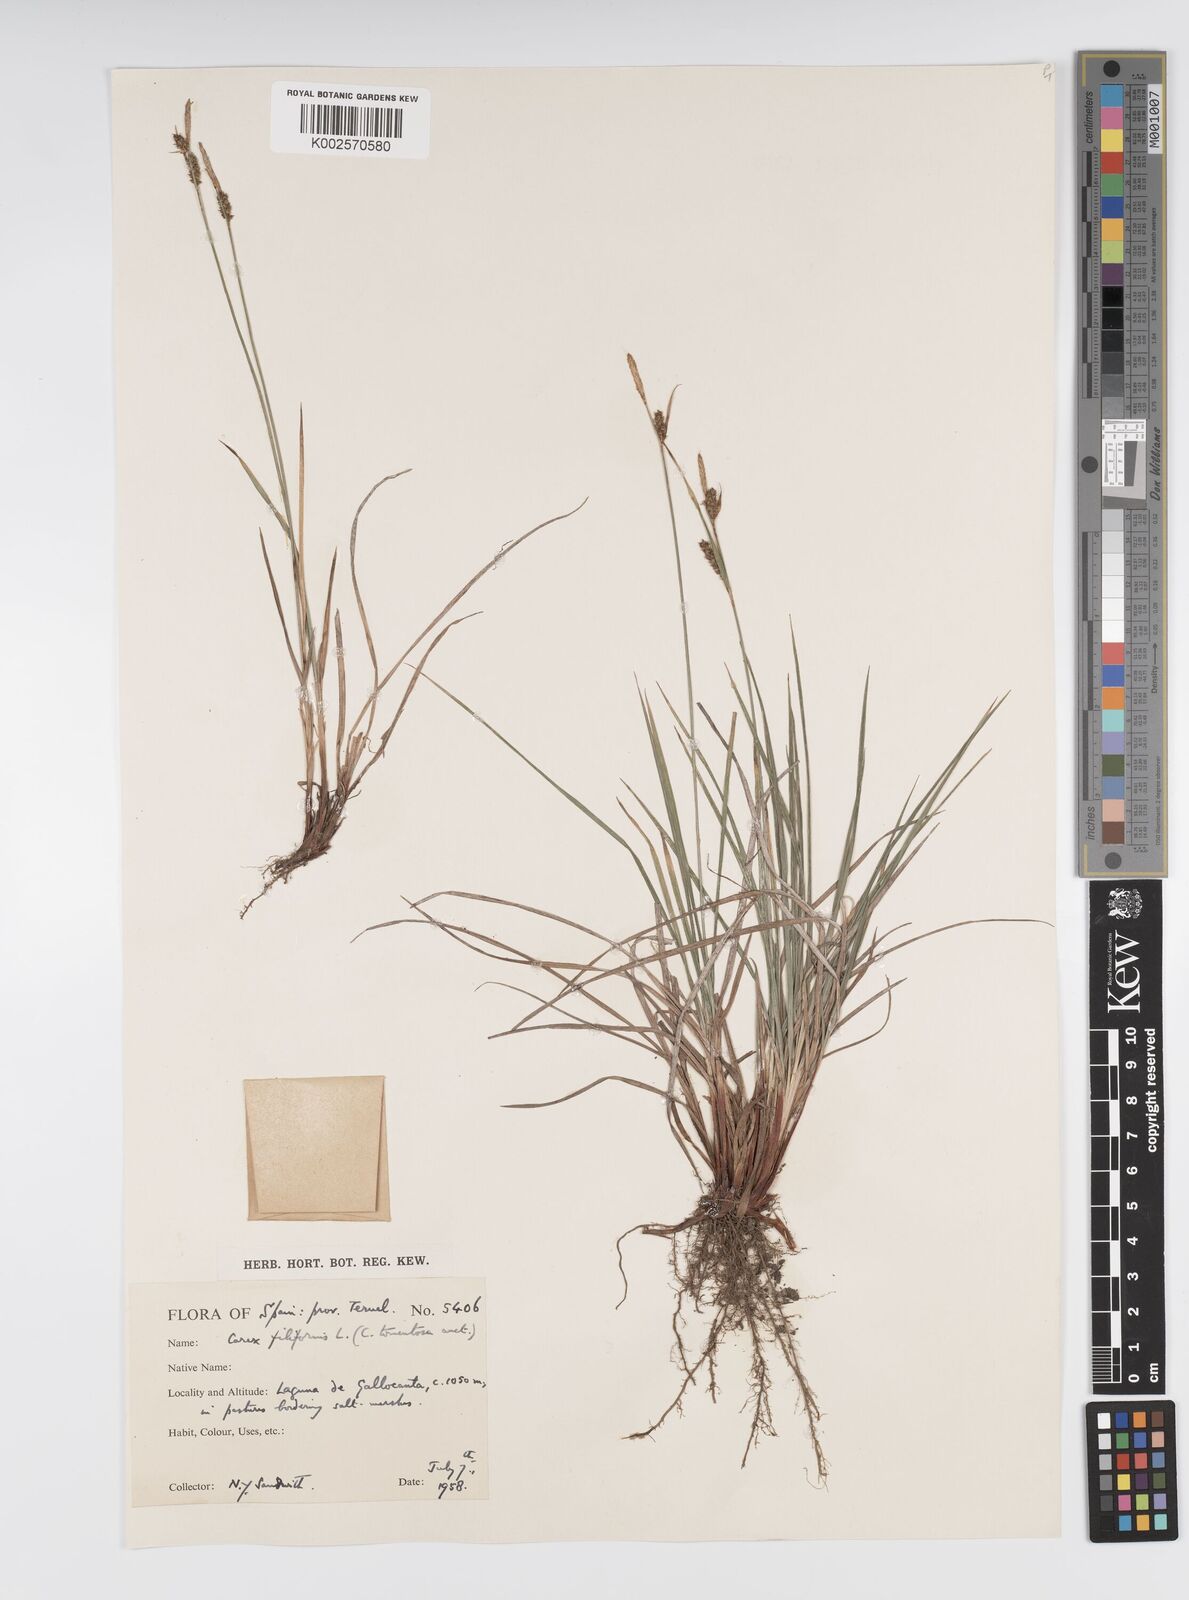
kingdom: Plantae
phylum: Tracheophyta
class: Liliopsida
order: Poales
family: Cyperaceae
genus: Carex
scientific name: Carex montana
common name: Soft-leaved sedge
